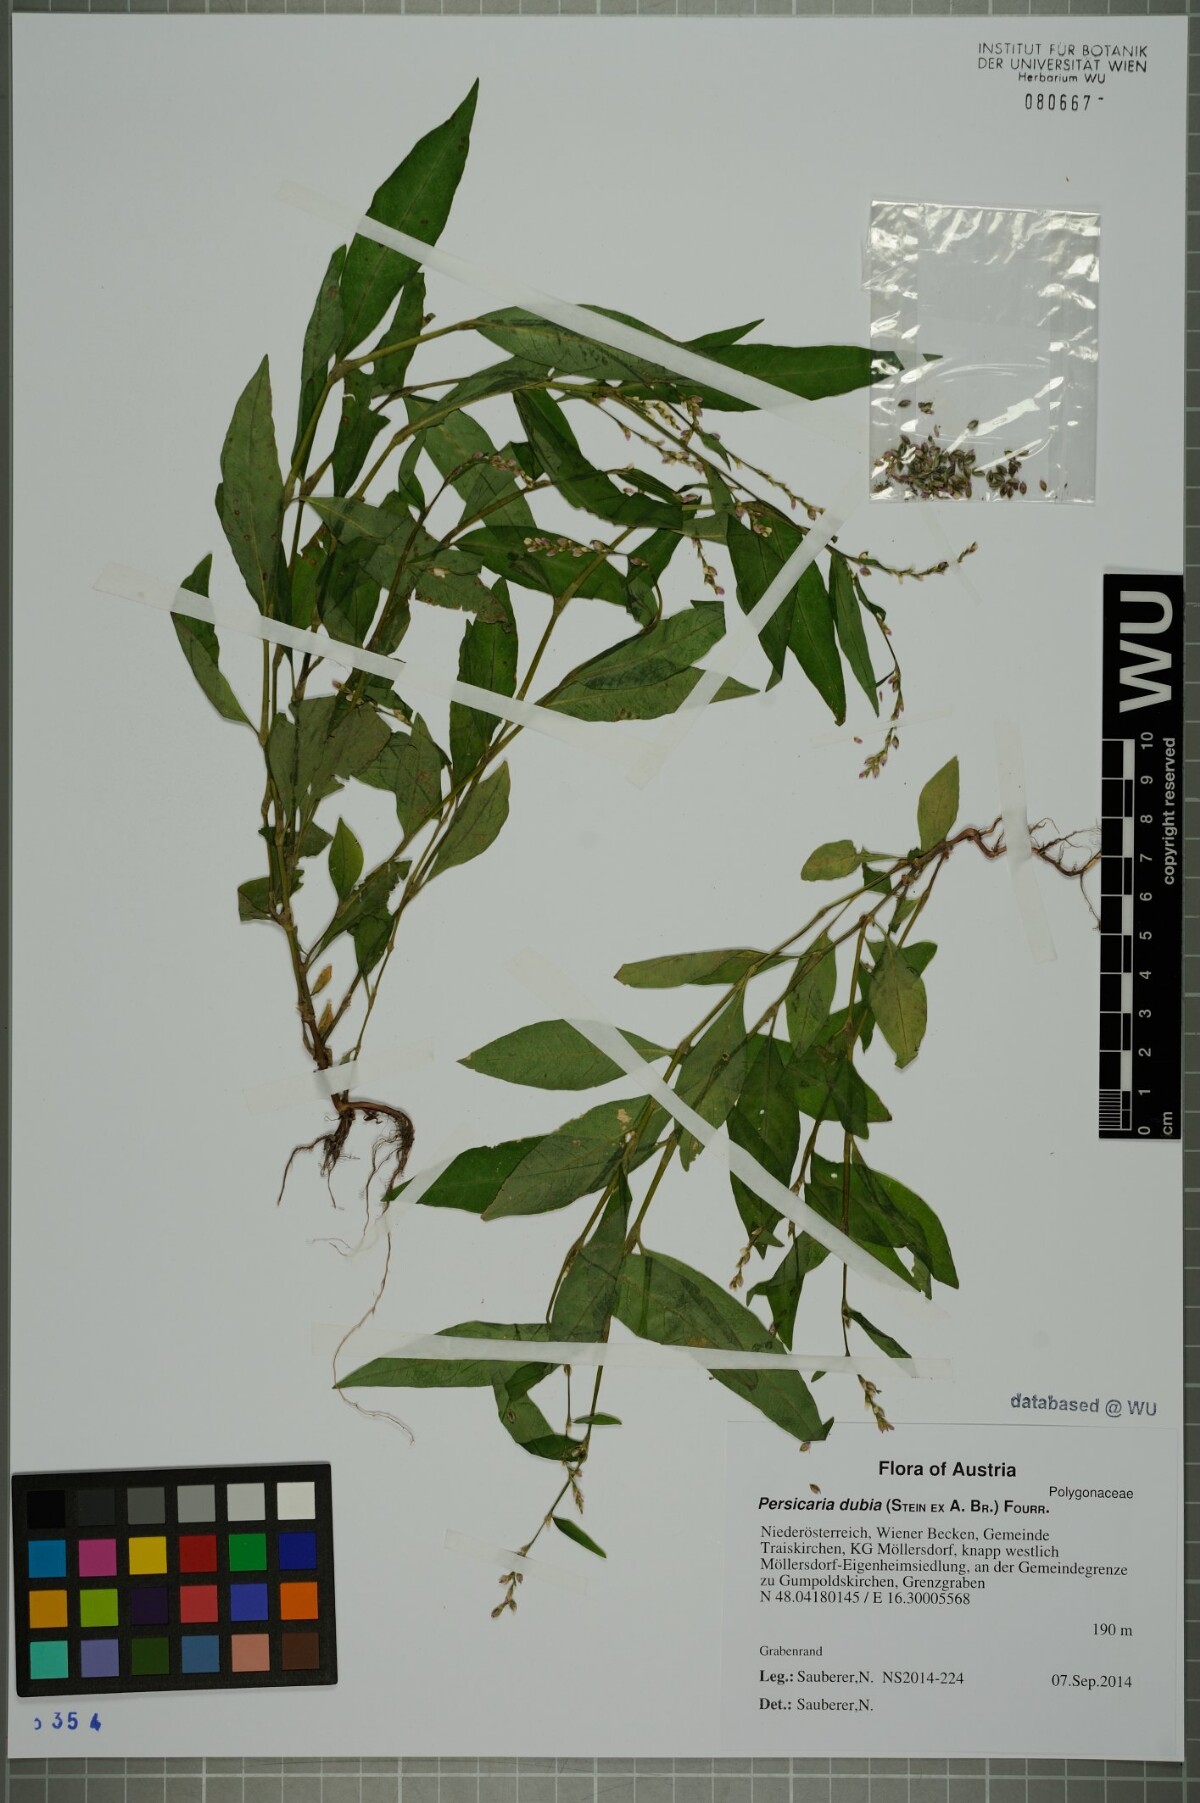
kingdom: Plantae
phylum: Tracheophyta
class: Magnoliopsida
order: Caryophyllales
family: Polygonaceae
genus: Persicaria
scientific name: Persicaria mitis
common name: Tasteless water-pepper
